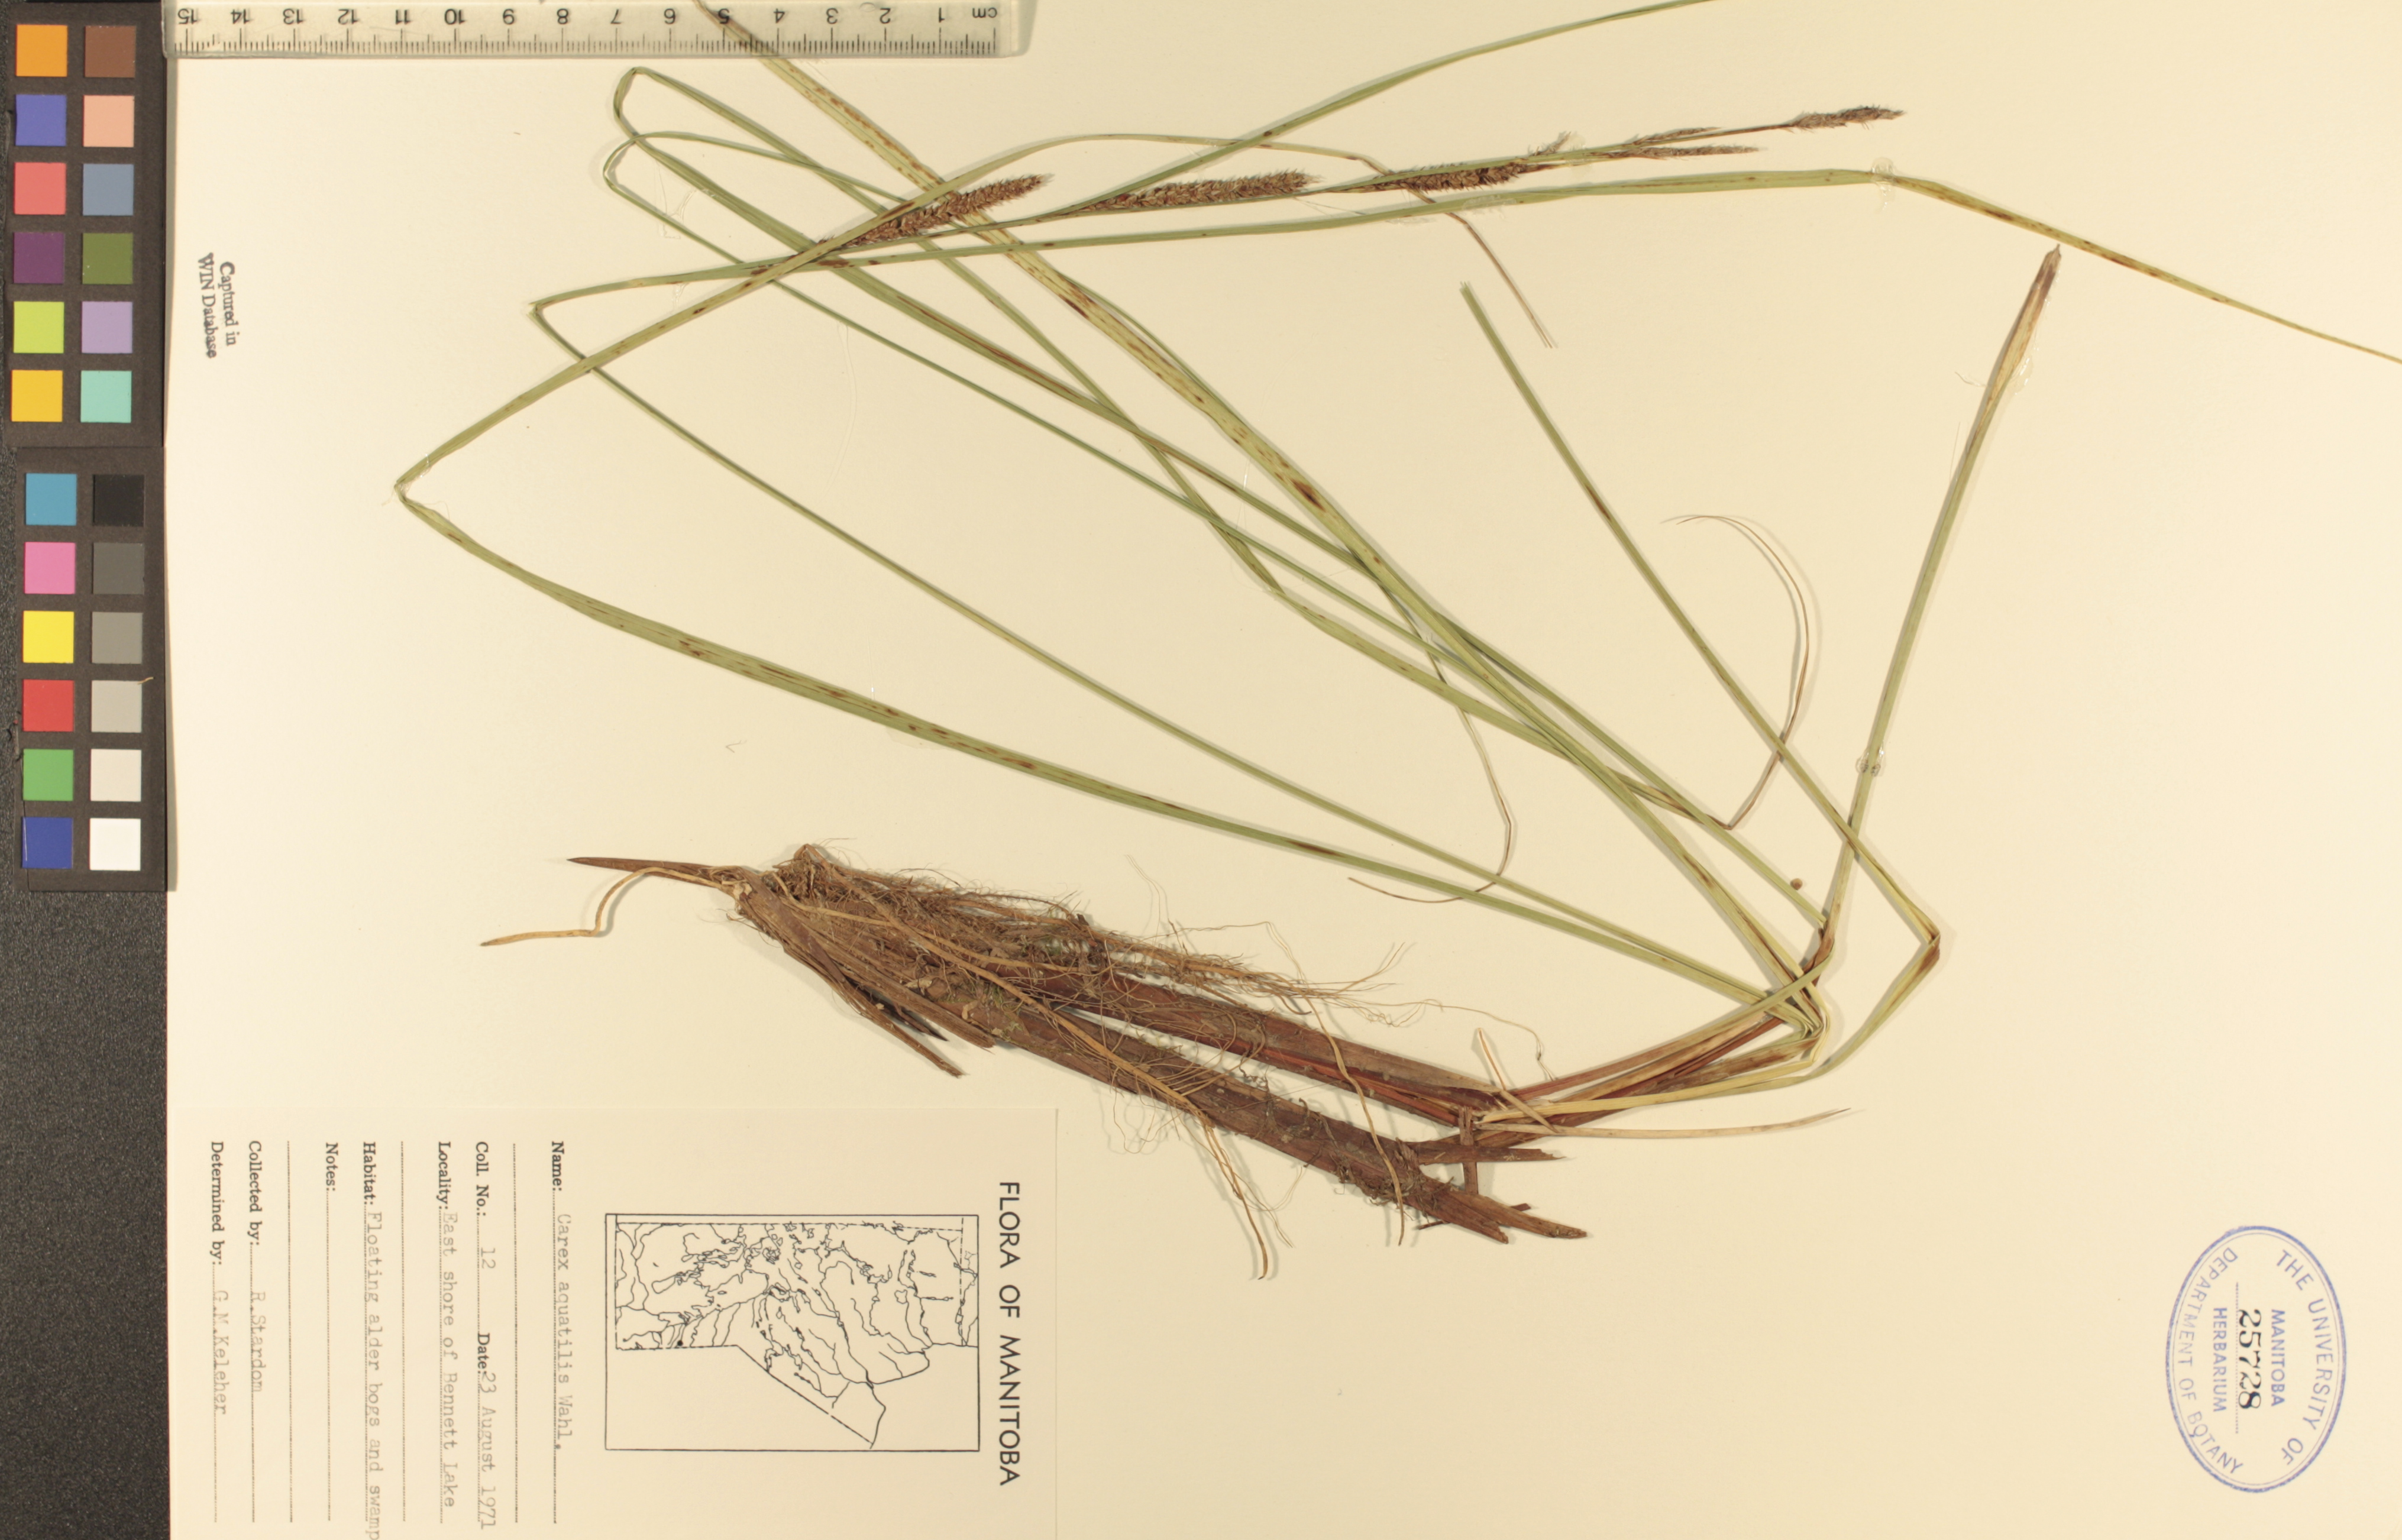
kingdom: Plantae
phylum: Tracheophyta
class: Liliopsida
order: Poales
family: Cyperaceae
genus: Carex
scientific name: Carex aquatilis
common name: Water sedge
